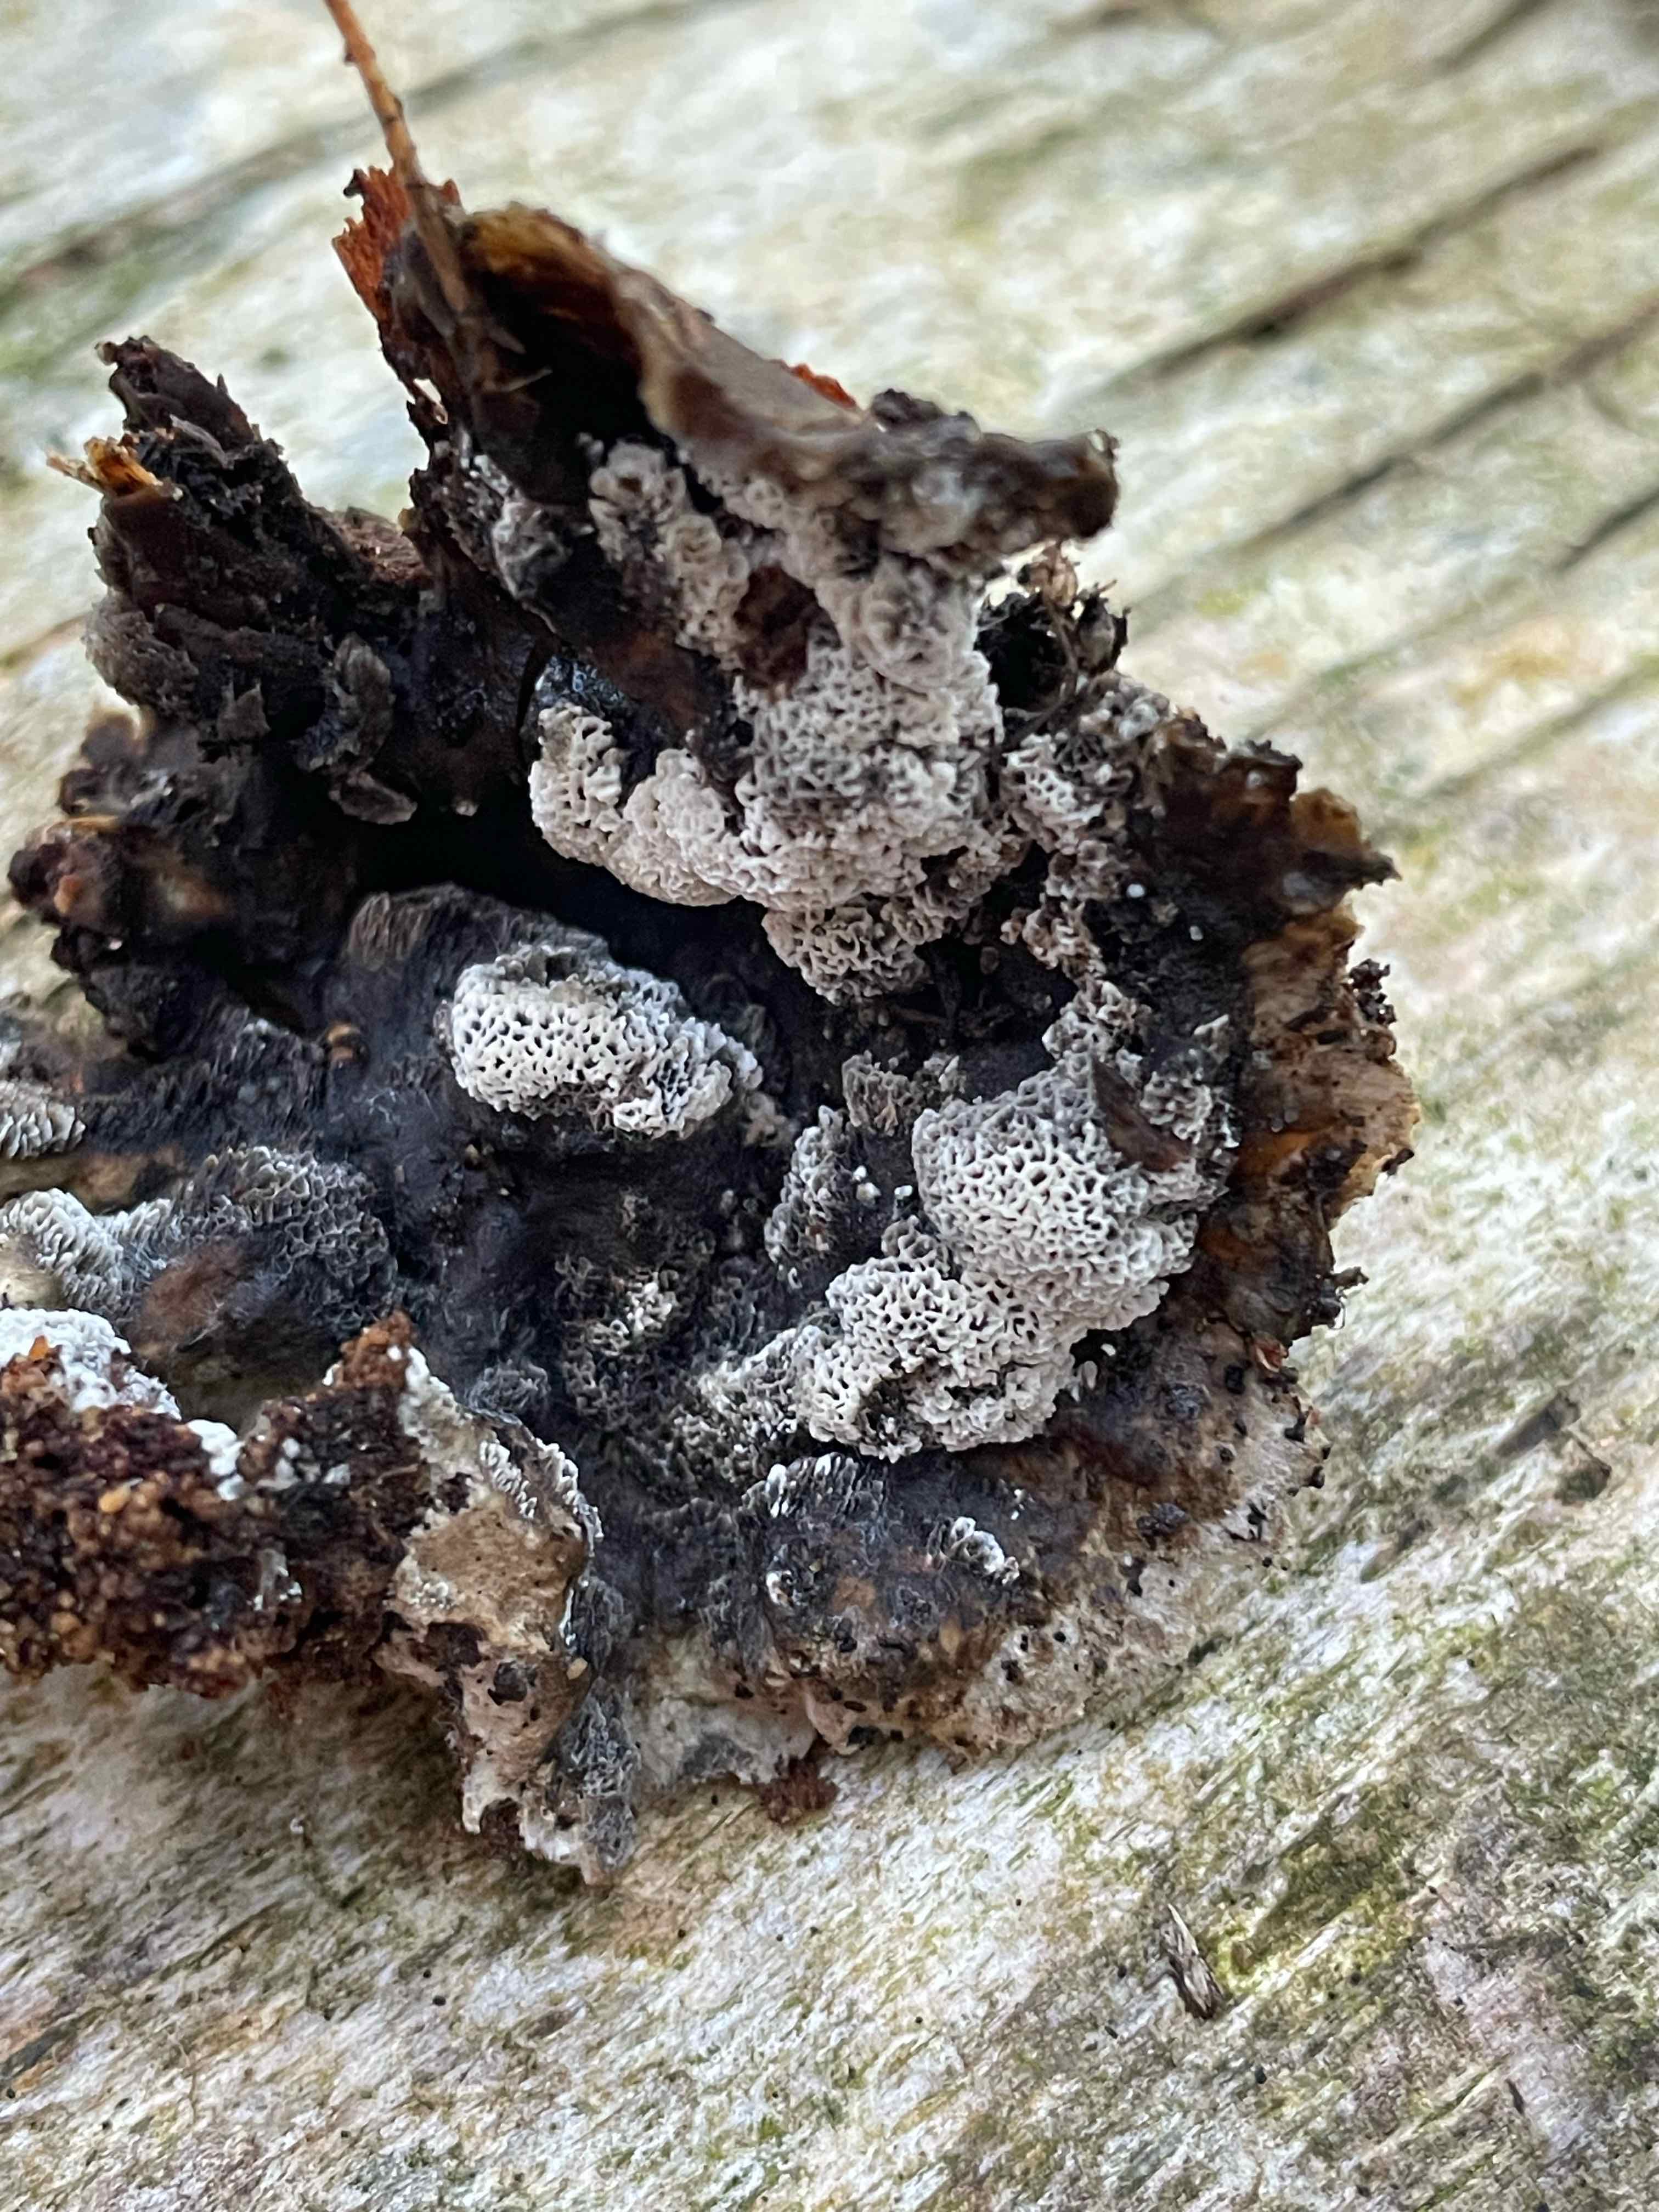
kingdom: Fungi
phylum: Basidiomycota
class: Agaricomycetes
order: Polyporales
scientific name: Polyporales
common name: poresvampordenen
